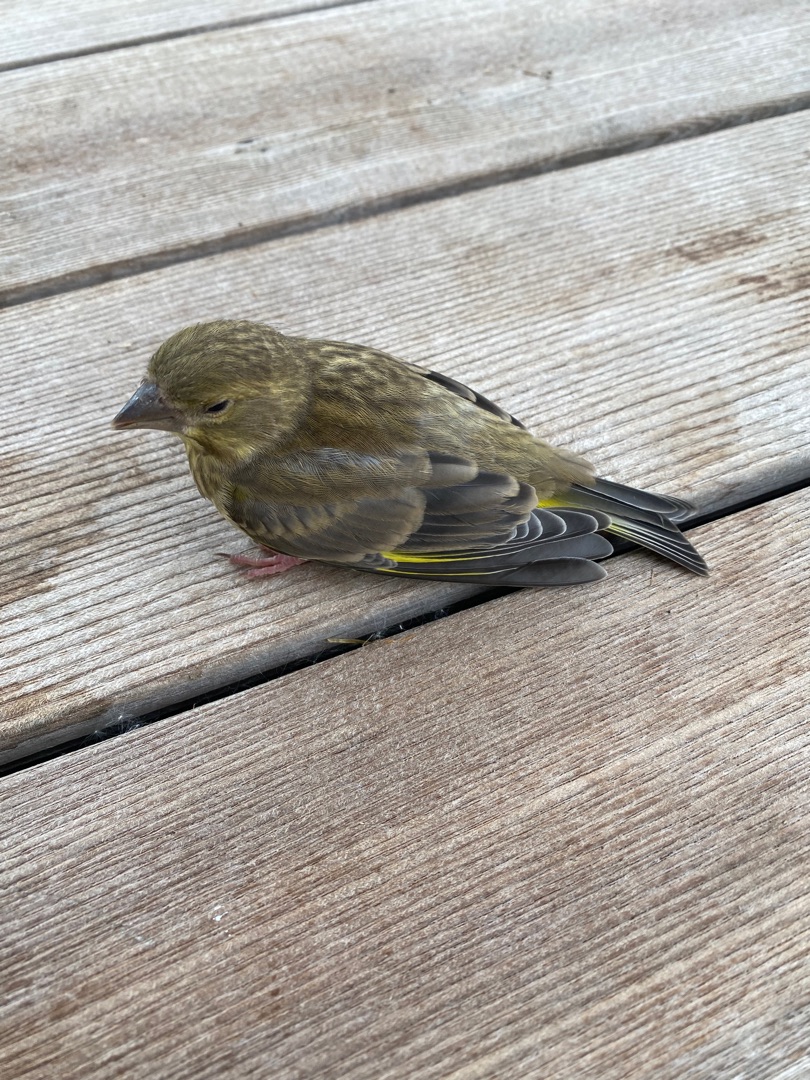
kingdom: Plantae
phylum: Tracheophyta
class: Liliopsida
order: Poales
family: Poaceae
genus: Chloris
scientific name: Chloris chloris
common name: Grønirisk
